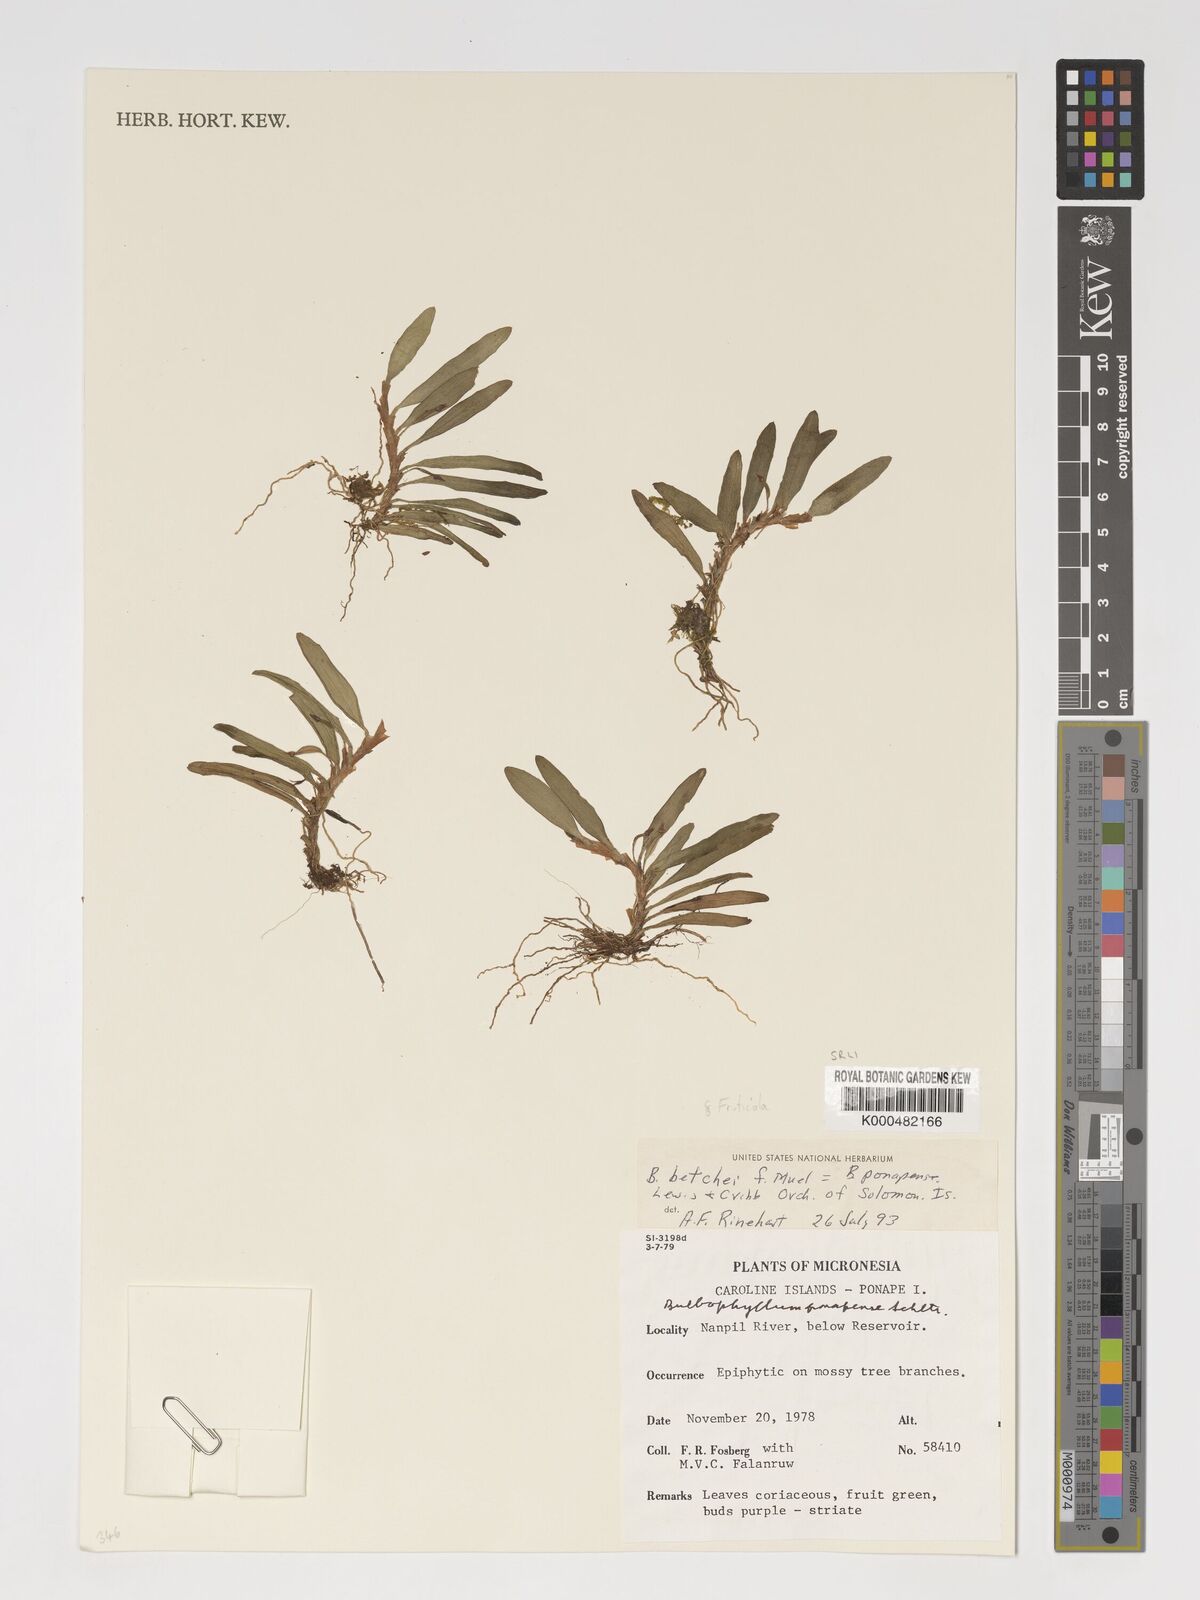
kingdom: Plantae
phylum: Tracheophyta
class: Liliopsida
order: Asparagales
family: Orchidaceae
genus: Bulbophyllum
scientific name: Bulbophyllum betchei
